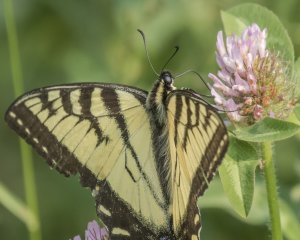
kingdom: Animalia
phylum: Arthropoda
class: Insecta
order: Lepidoptera
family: Papilionidae
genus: Pterourus
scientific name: Pterourus canadensis
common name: Canadian Tiger Swallowtail
